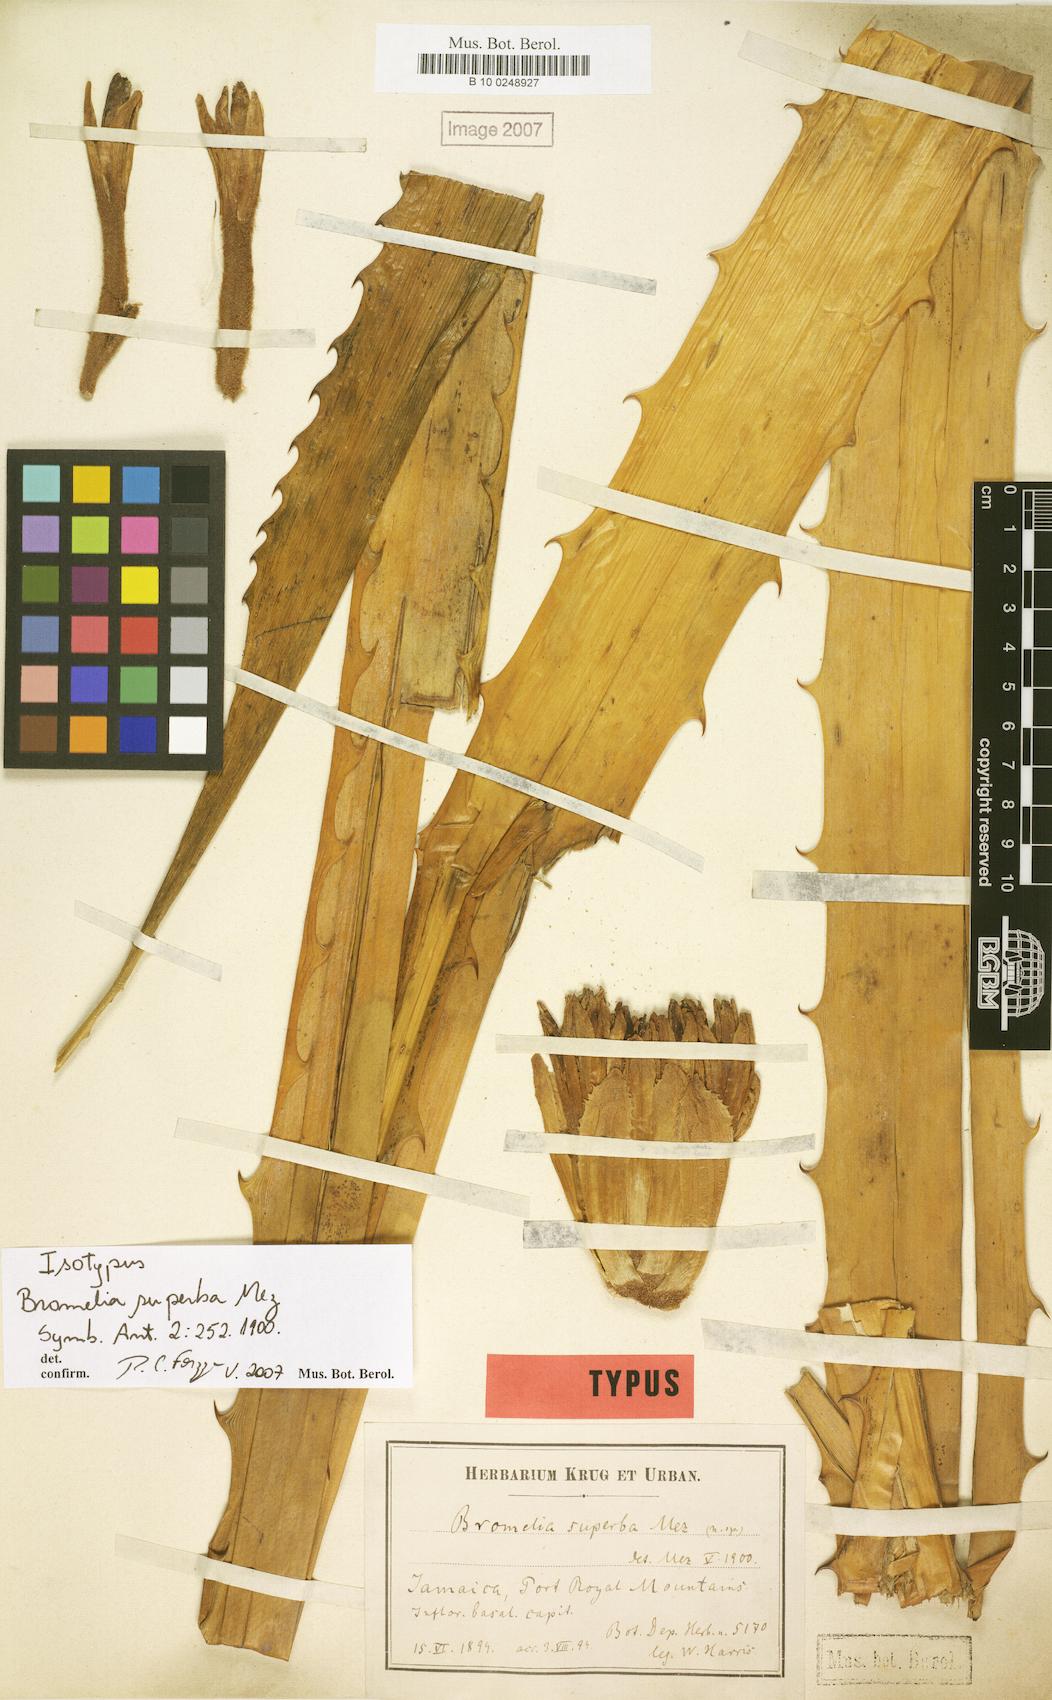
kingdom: Plantae
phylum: Tracheophyta
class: Liliopsida
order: Poales
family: Bromeliaceae
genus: Bromelia
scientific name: Bromelia superba
